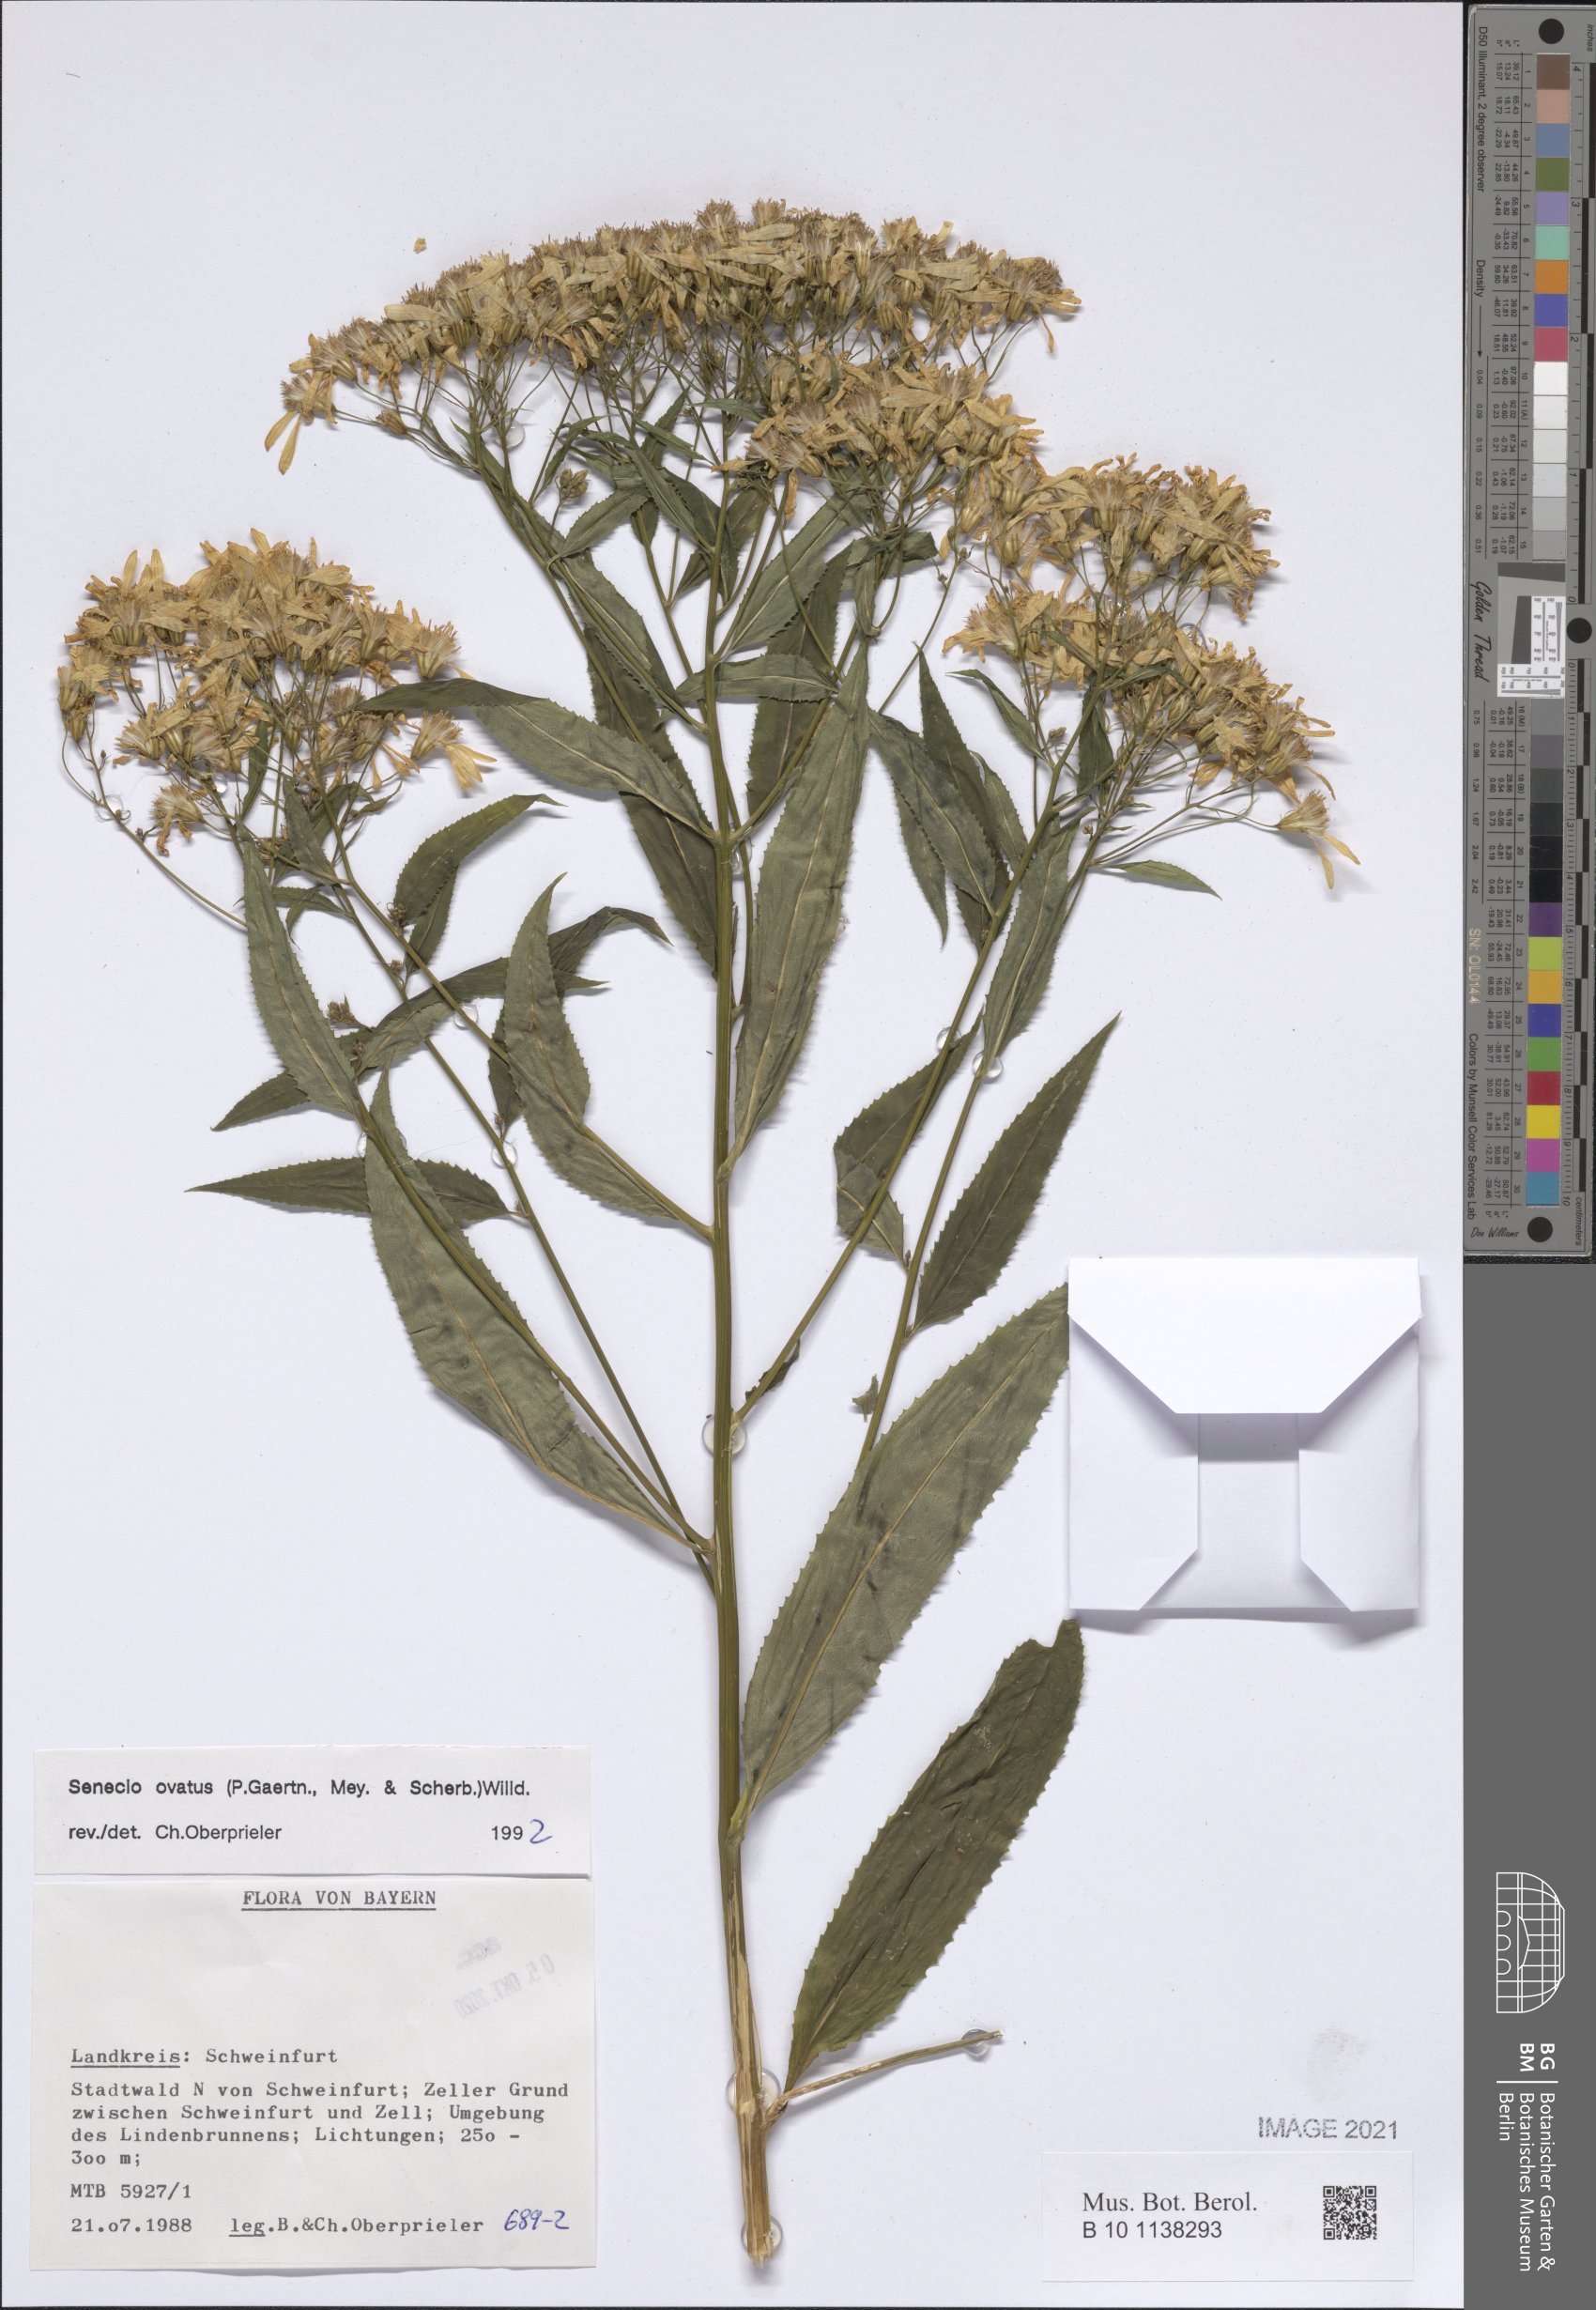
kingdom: Plantae
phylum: Tracheophyta
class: Magnoliopsida
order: Asterales
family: Asteraceae
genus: Senecio
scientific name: Senecio ovatus
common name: Wood ragwort
